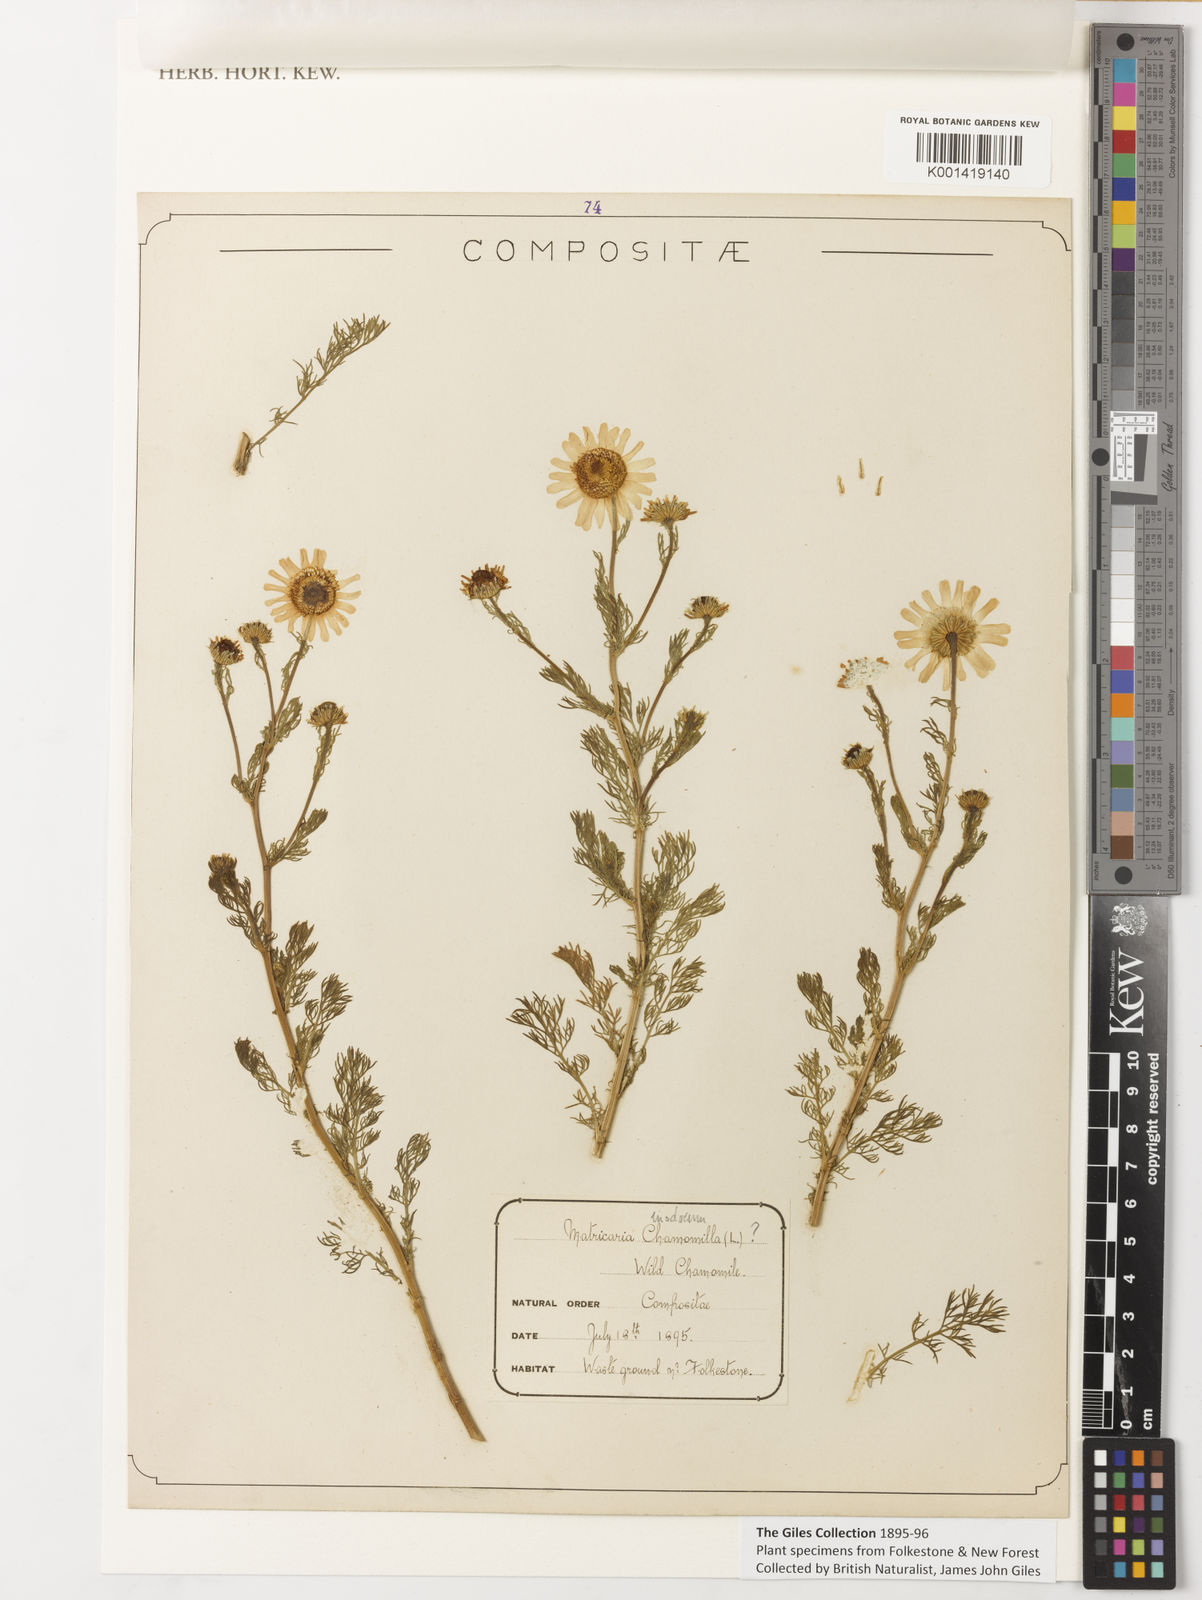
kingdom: Plantae
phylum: Tracheophyta
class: Magnoliopsida
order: Asterales
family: Asteraceae
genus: Matricaria
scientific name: Matricaria chamomilla
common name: Scented mayweed
